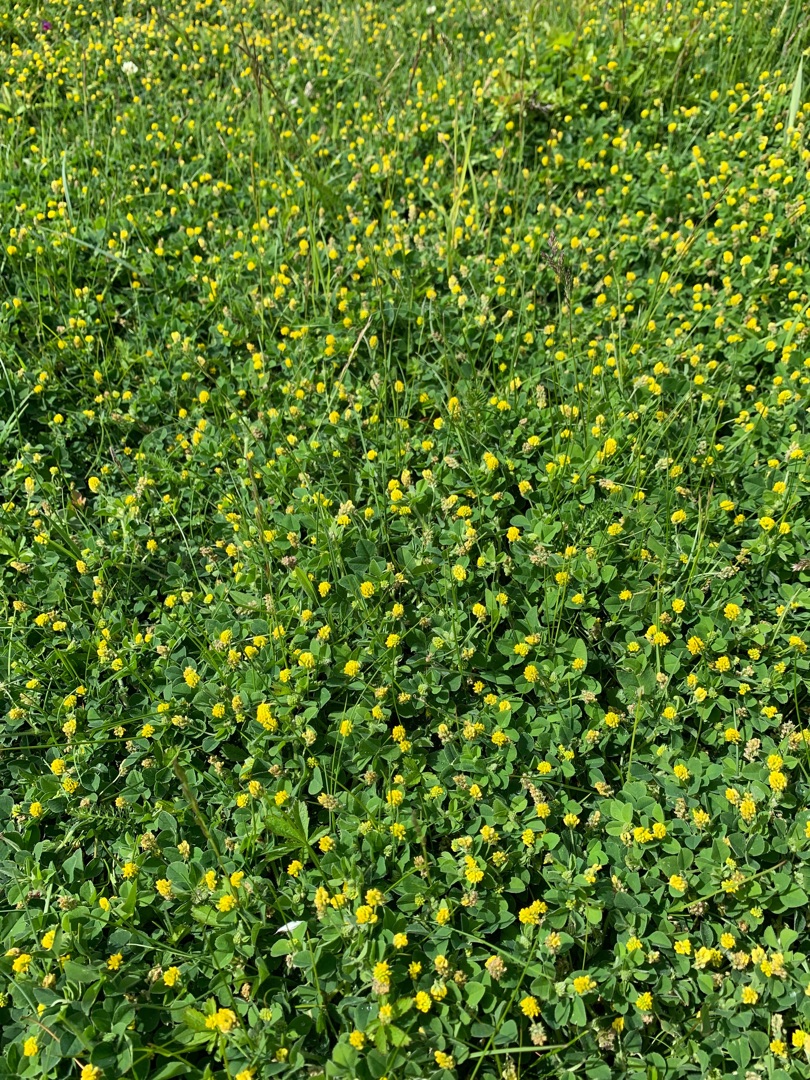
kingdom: Plantae
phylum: Tracheophyta
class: Magnoliopsida
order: Fabales
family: Fabaceae
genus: Medicago
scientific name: Medicago lupulina
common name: Humle-sneglebælg
